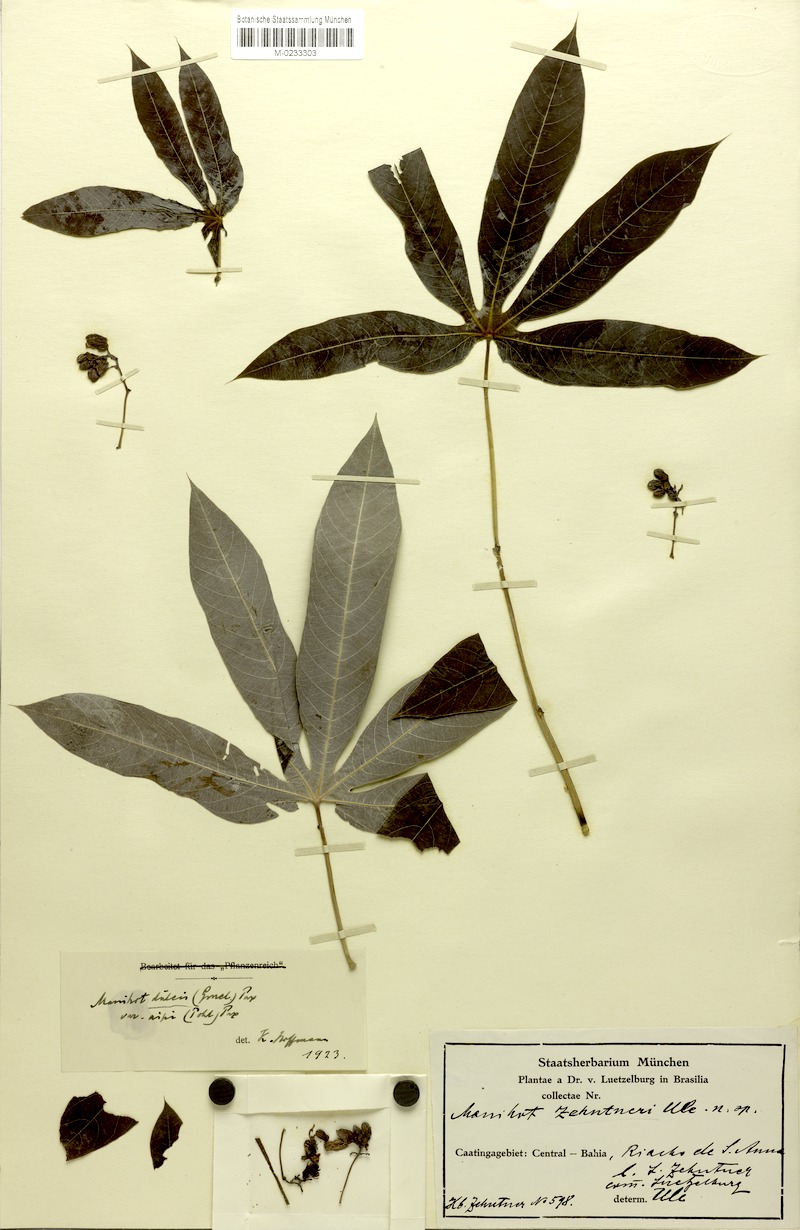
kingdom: Plantae
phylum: Tracheophyta
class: Magnoliopsida
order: Malpighiales
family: Euphorbiaceae
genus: Manihot
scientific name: Manihot zehntneri
